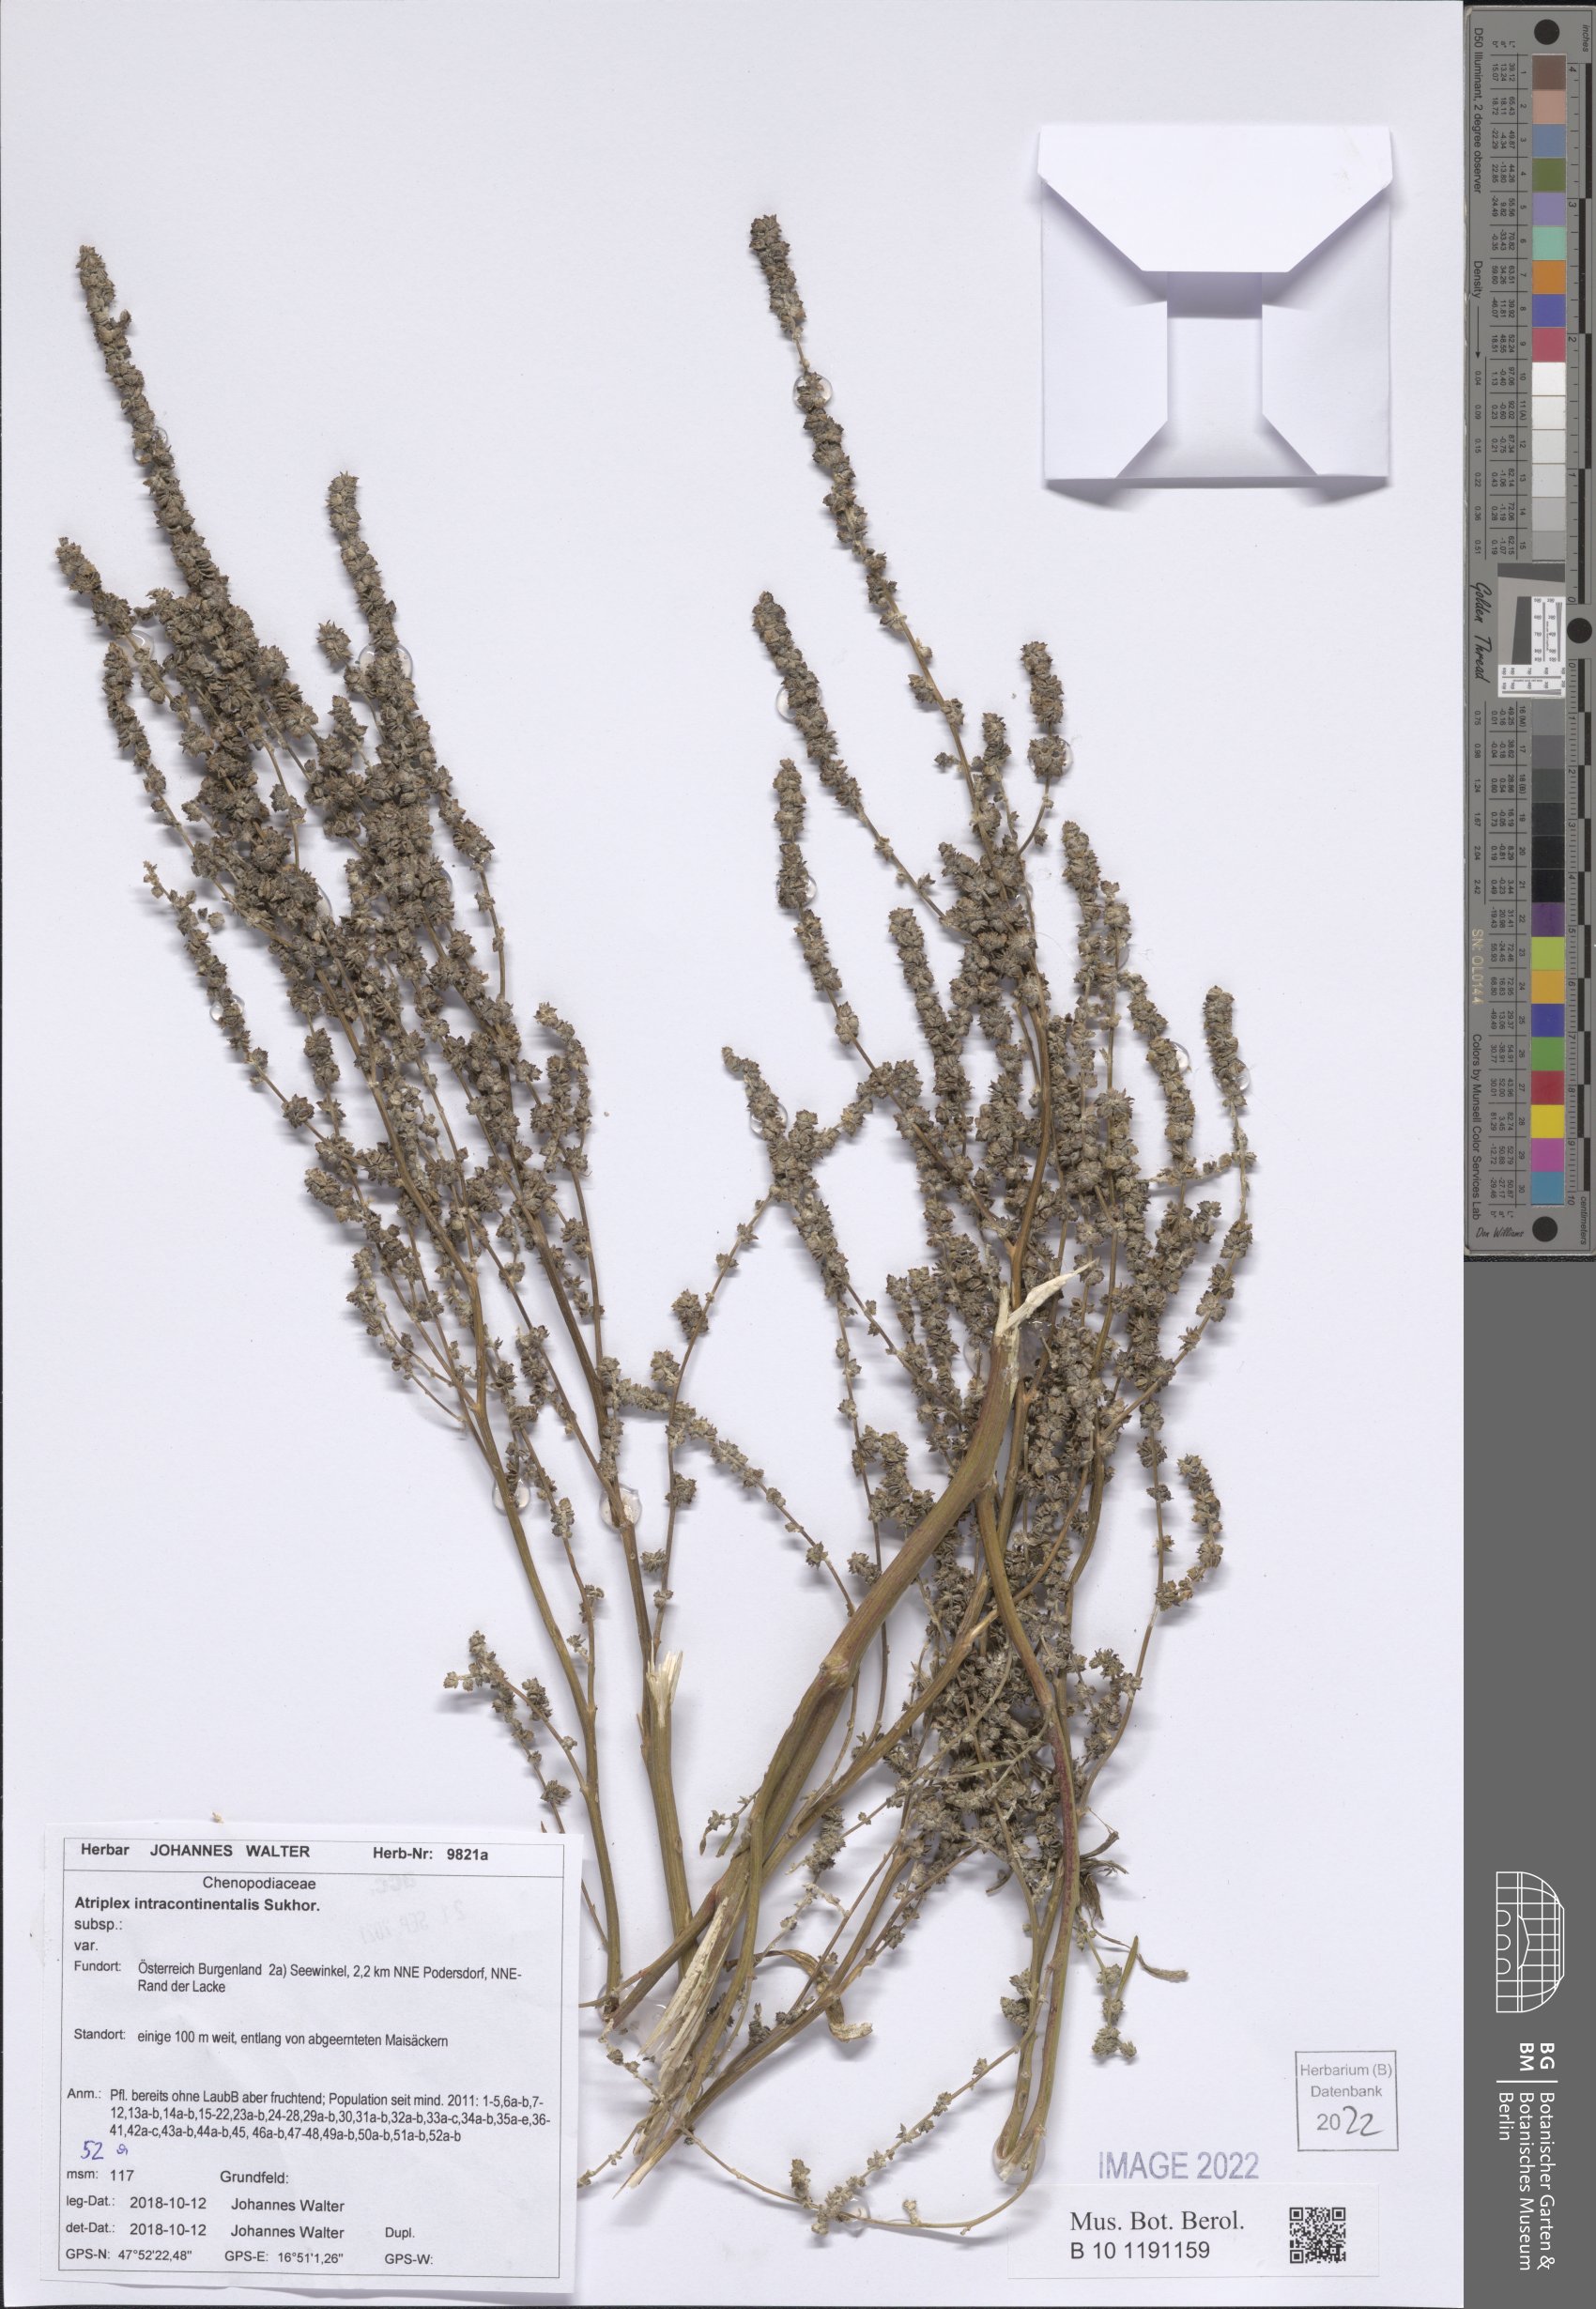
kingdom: Plantae
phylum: Tracheophyta
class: Magnoliopsida
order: Caryophyllales
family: Amaranthaceae
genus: Atriplex
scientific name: Atriplex intracontinentalis
